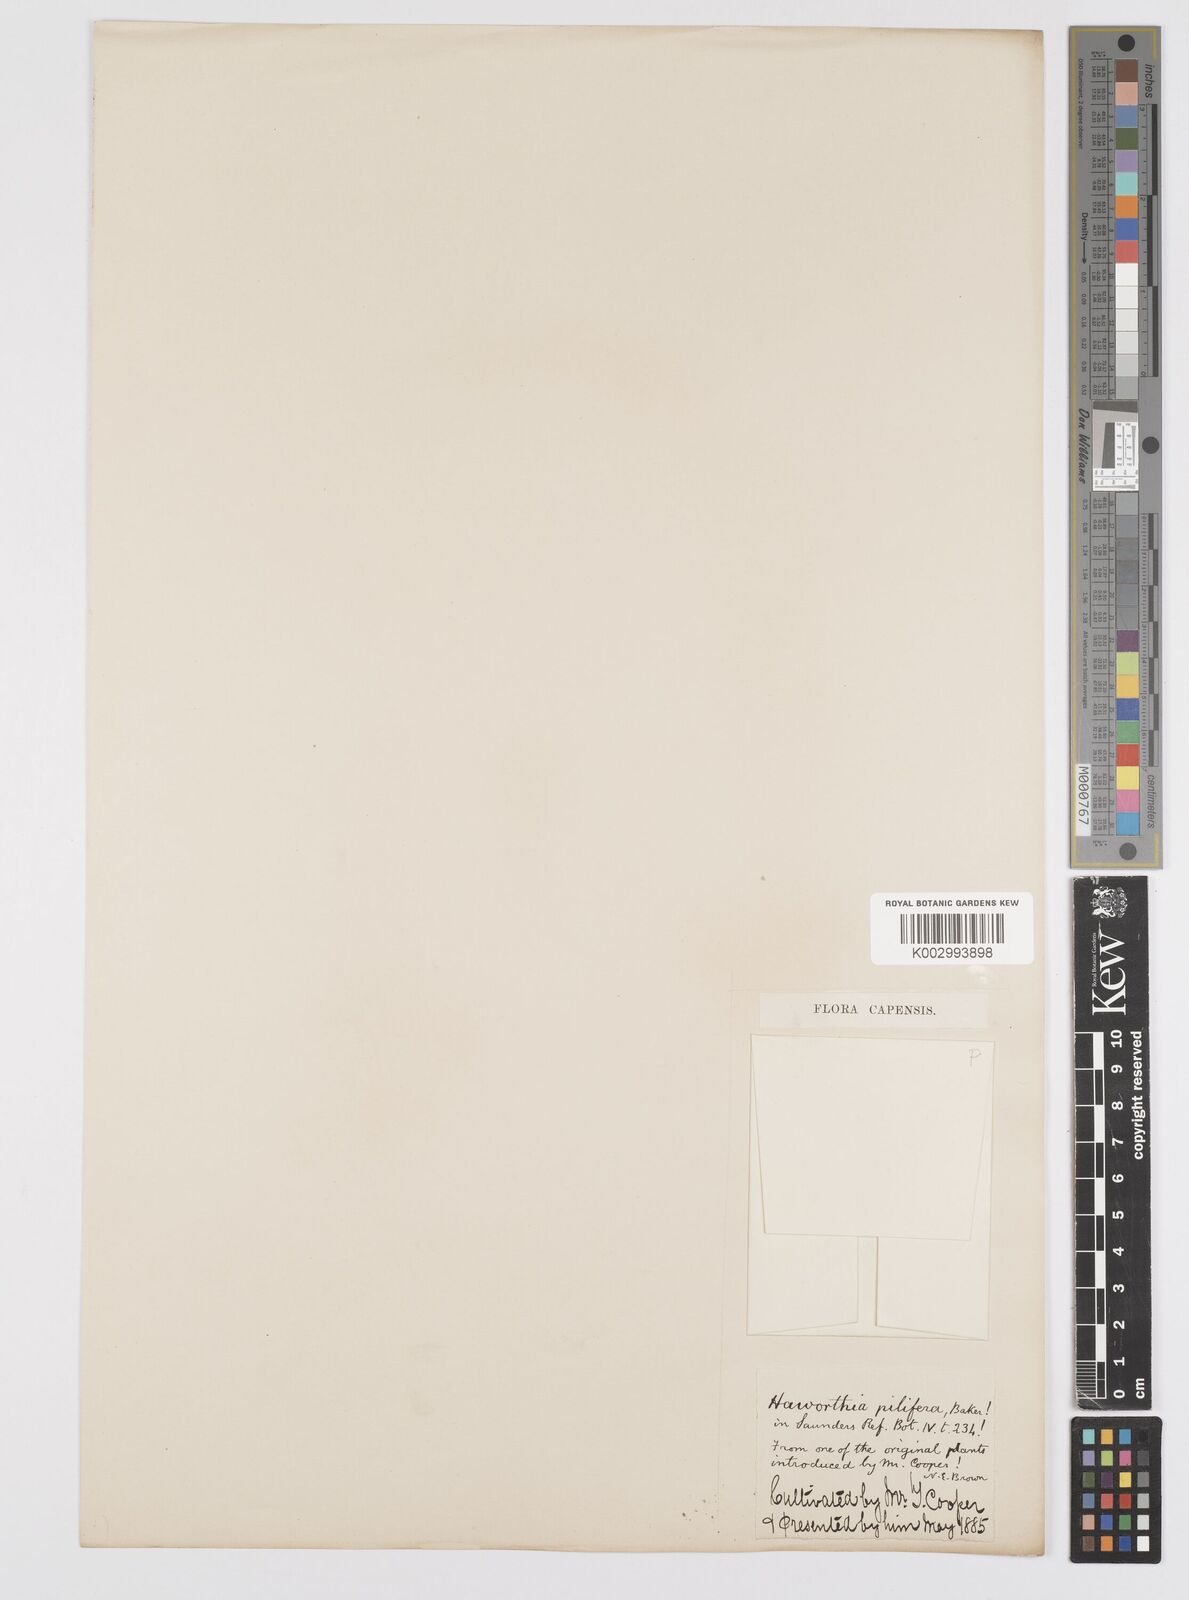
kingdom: Plantae
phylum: Tracheophyta
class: Liliopsida
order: Asparagales
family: Asphodelaceae
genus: Haworthia
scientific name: Haworthia cymbiformis
